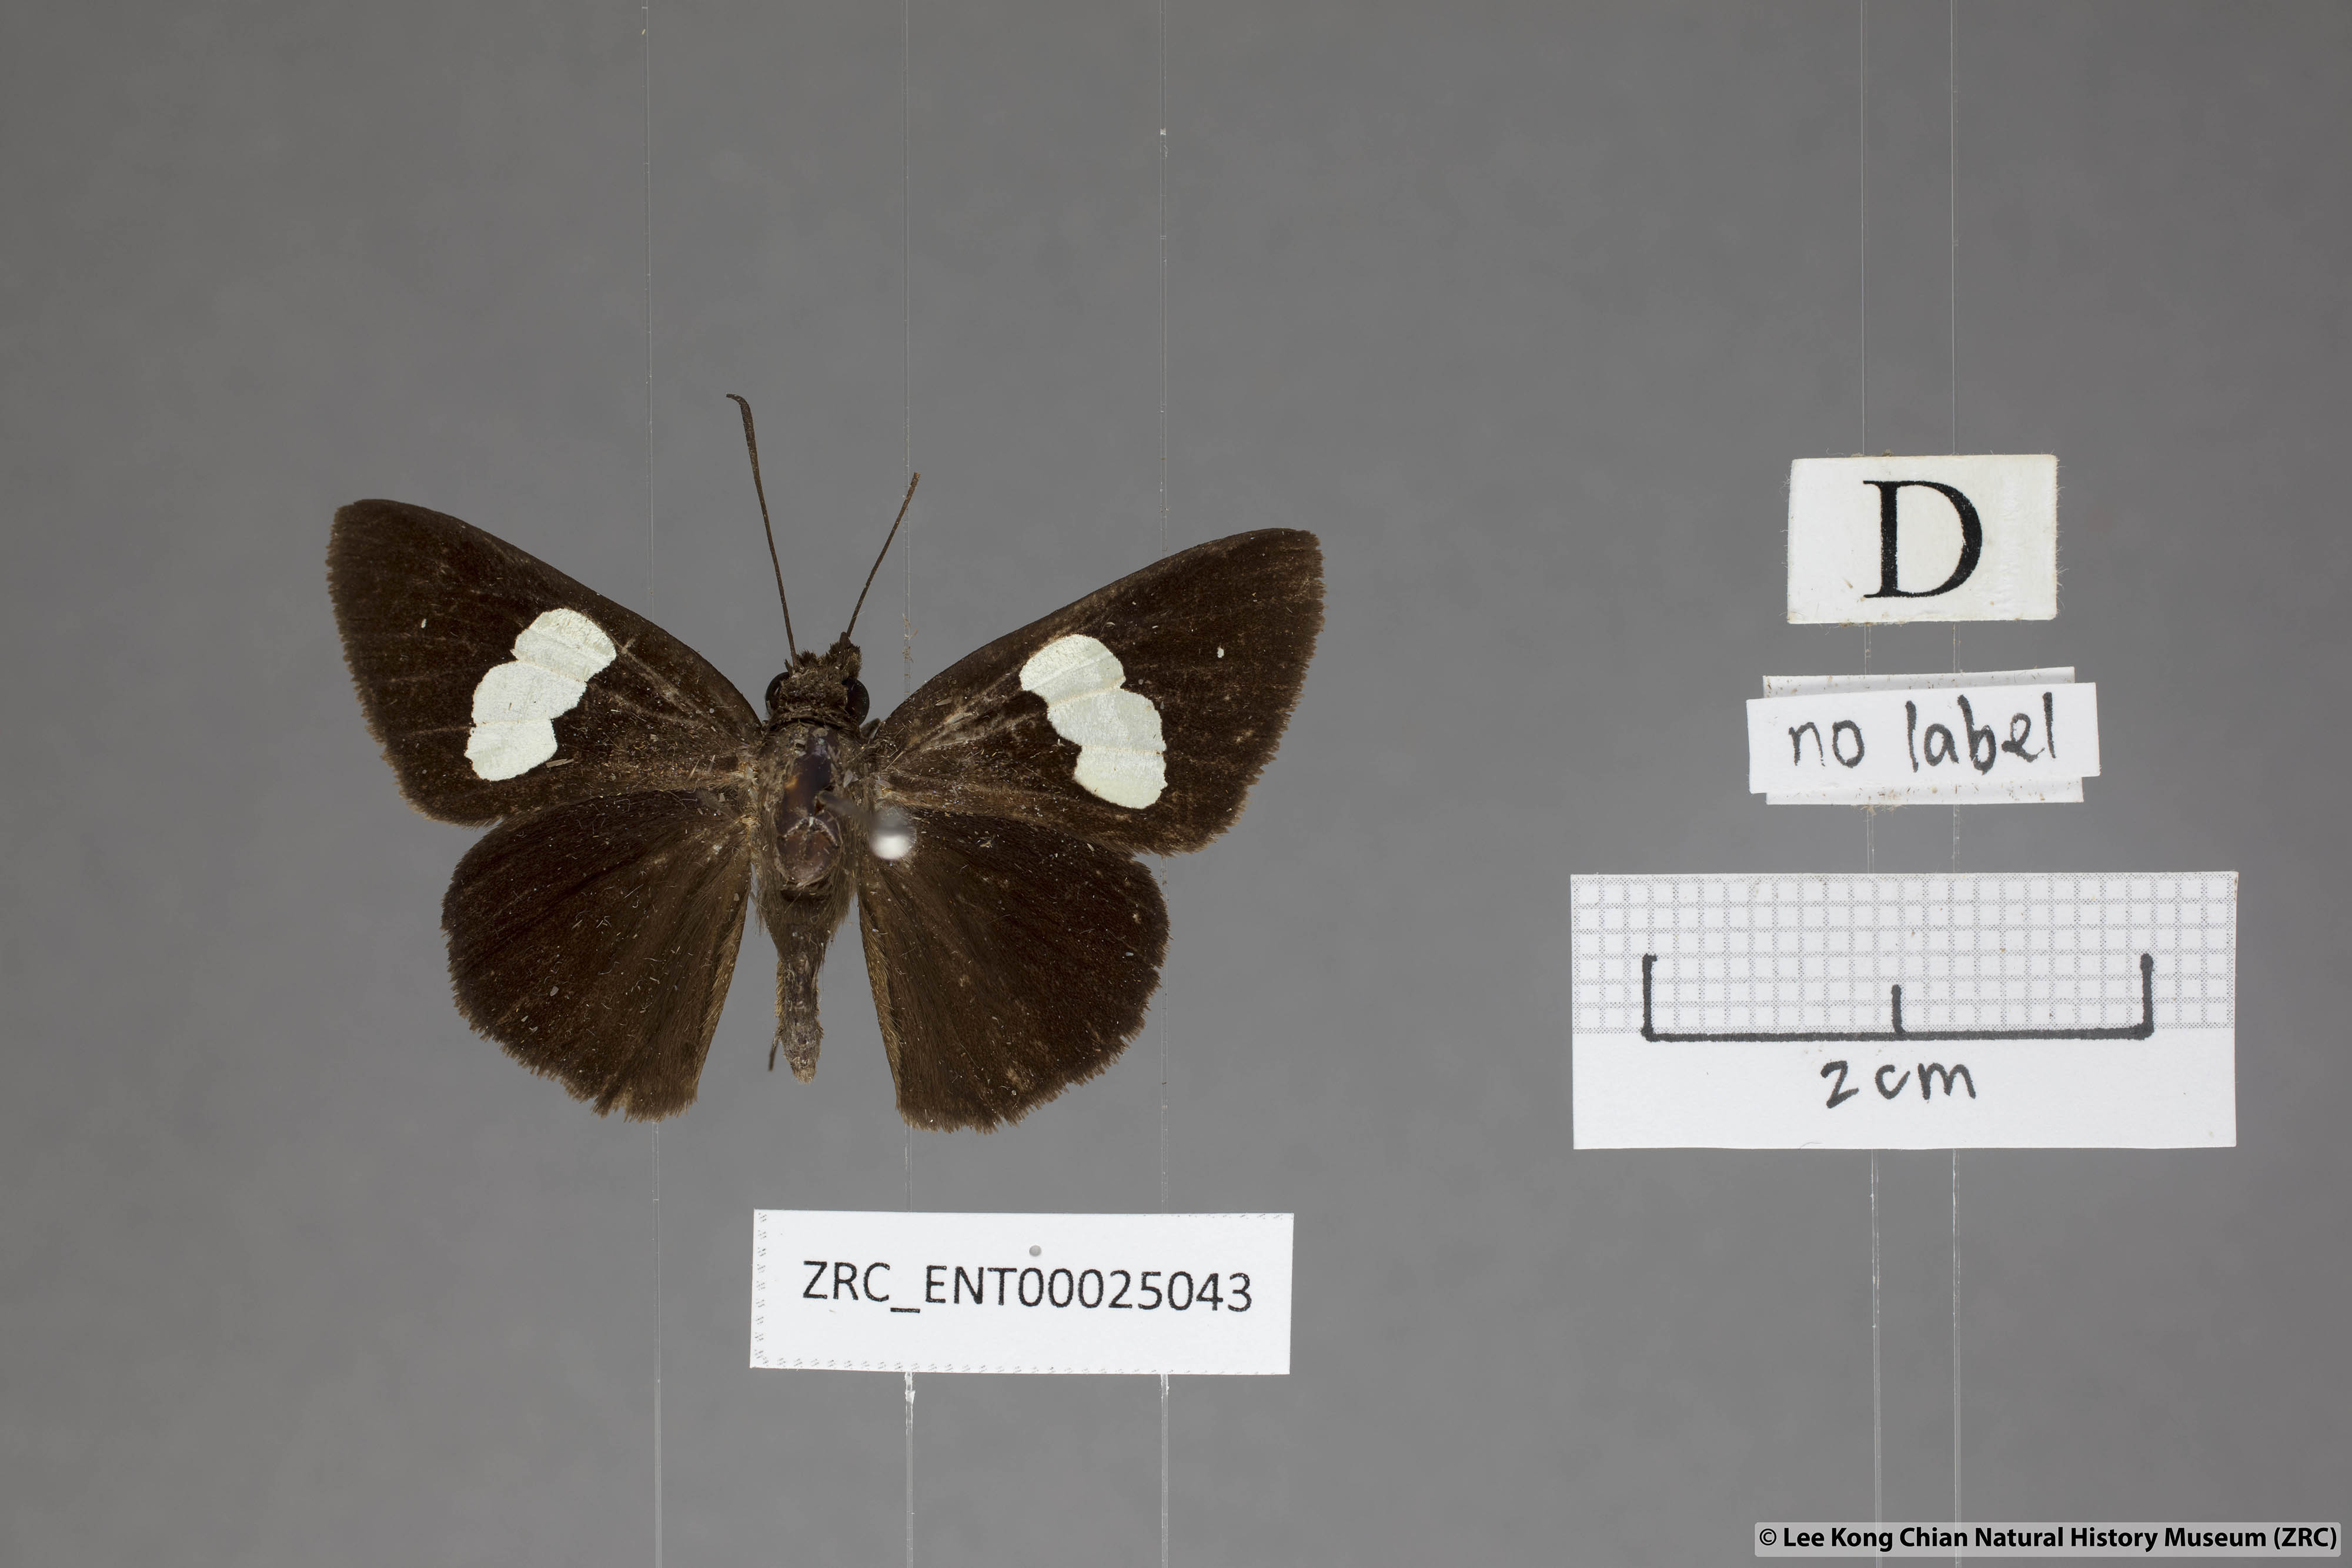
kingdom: Animalia
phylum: Arthropoda
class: Insecta
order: Lepidoptera
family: Hesperiidae
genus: Notocrypta
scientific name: Notocrypta paralysos
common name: Common banded demon
